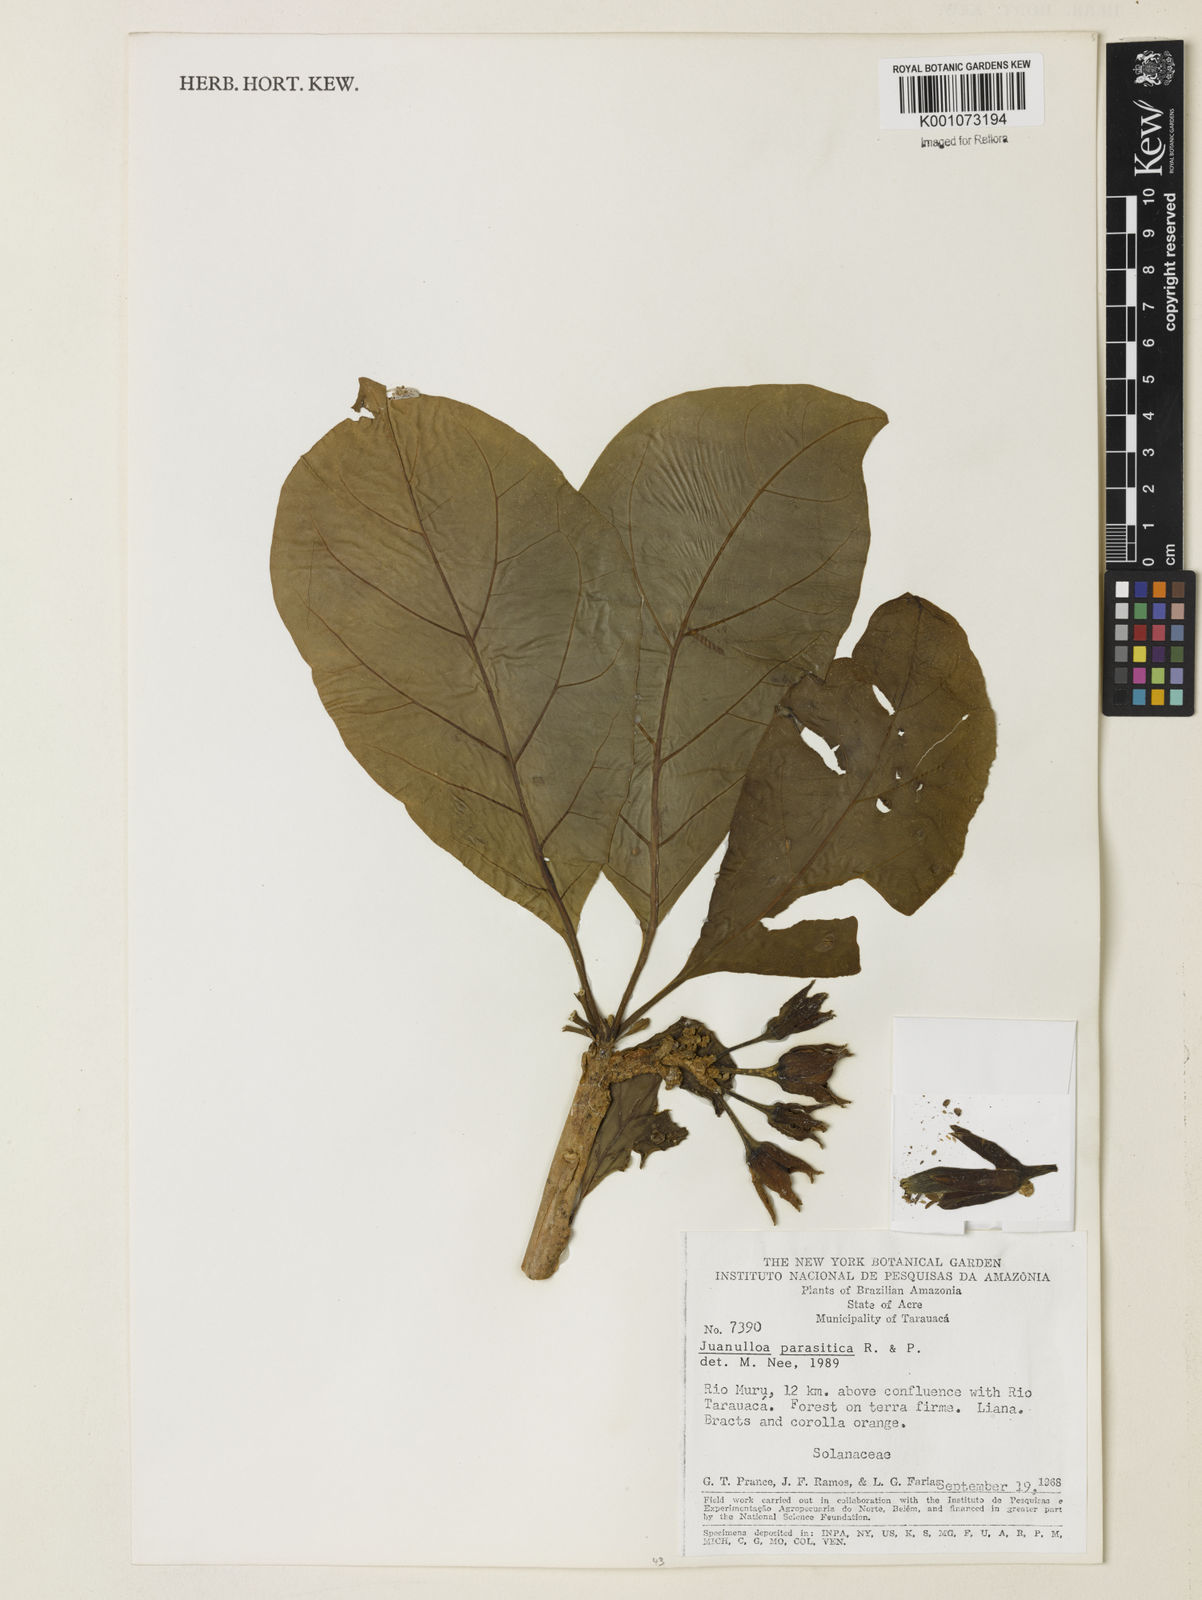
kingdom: Plantae
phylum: Tracheophyta
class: Magnoliopsida
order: Solanales
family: Solanaceae
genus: Juanulloa
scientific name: Juanulloa parasitica
